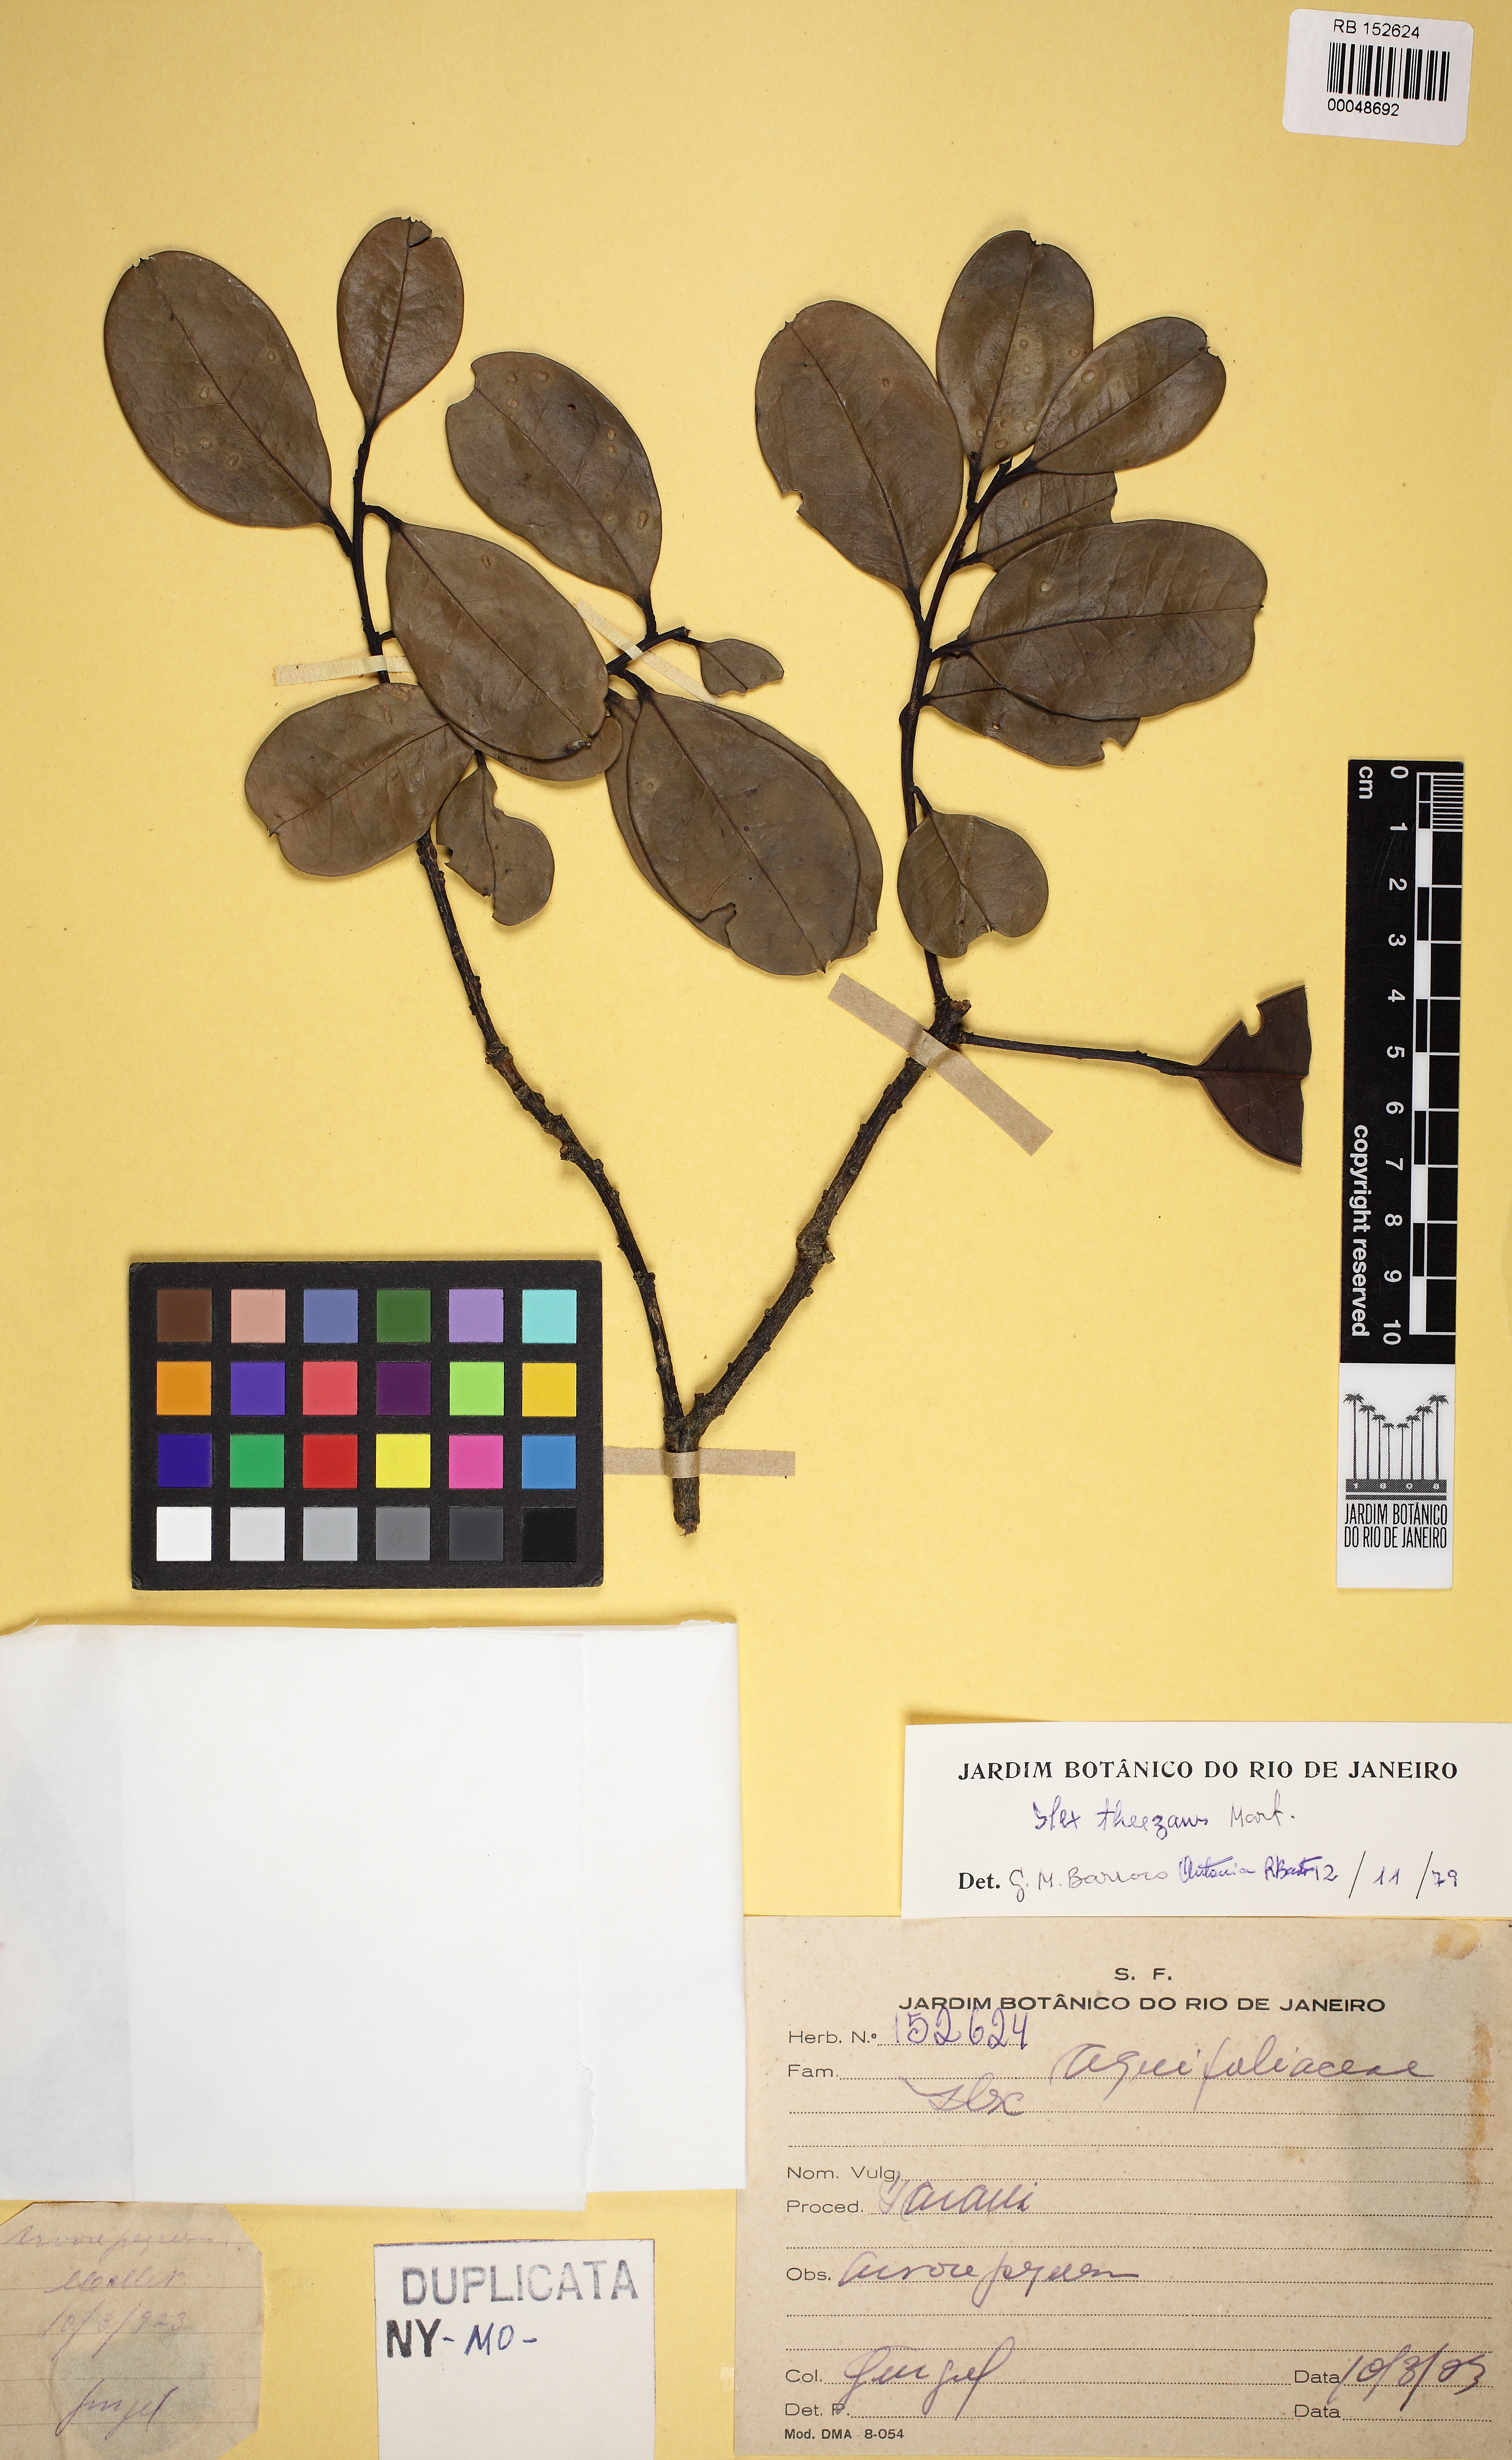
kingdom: Plantae
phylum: Tracheophyta
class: Magnoliopsida
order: Aquifoliales
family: Aquifoliaceae
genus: Ilex
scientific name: Ilex theezans
